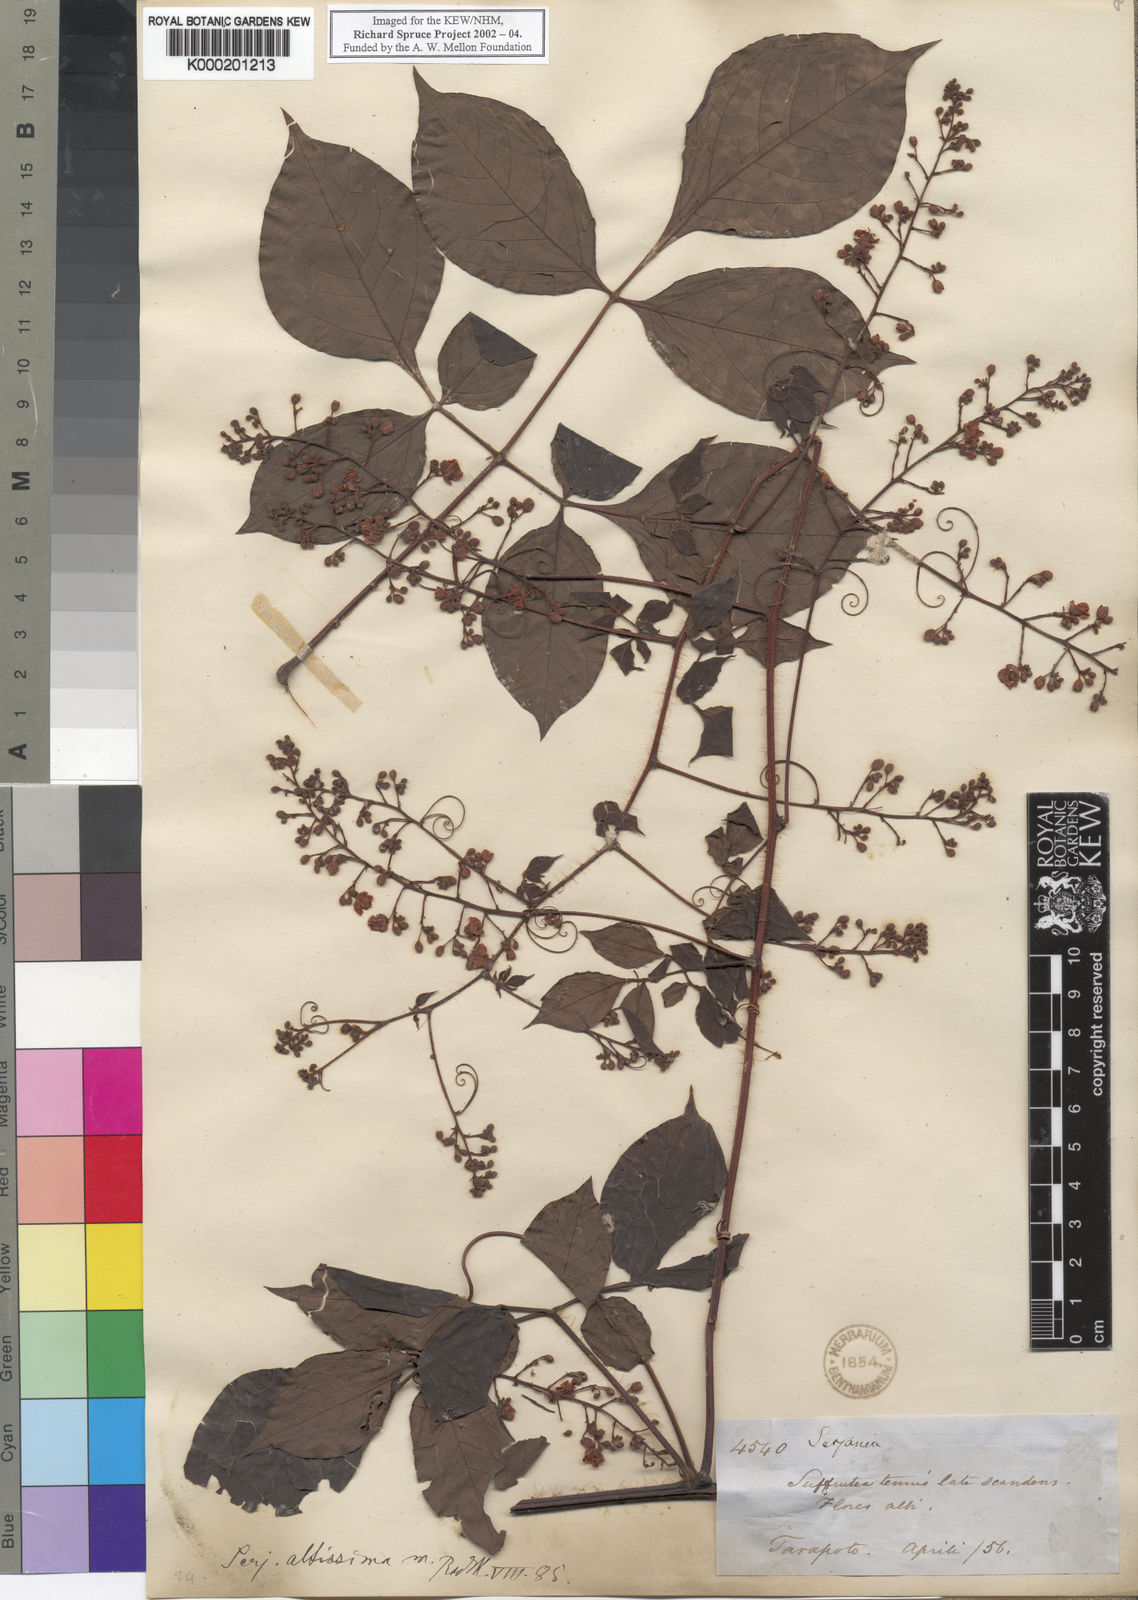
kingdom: Plantae
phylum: Tracheophyta
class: Magnoliopsida
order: Sapindales
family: Sapindaceae
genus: Serjania
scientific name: Serjania altissima
